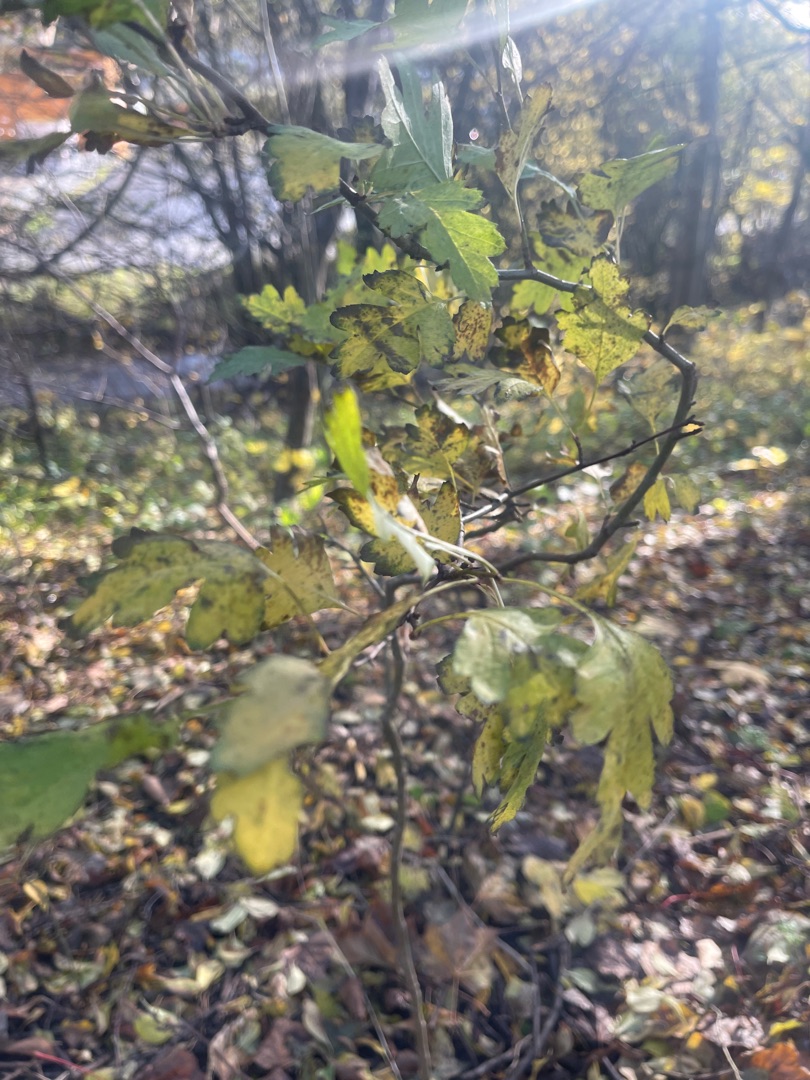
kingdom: Plantae
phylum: Tracheophyta
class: Magnoliopsida
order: Rosales
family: Rosaceae
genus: Crataegus
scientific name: Crataegus monogyna
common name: Engriflet hvidtjørn
